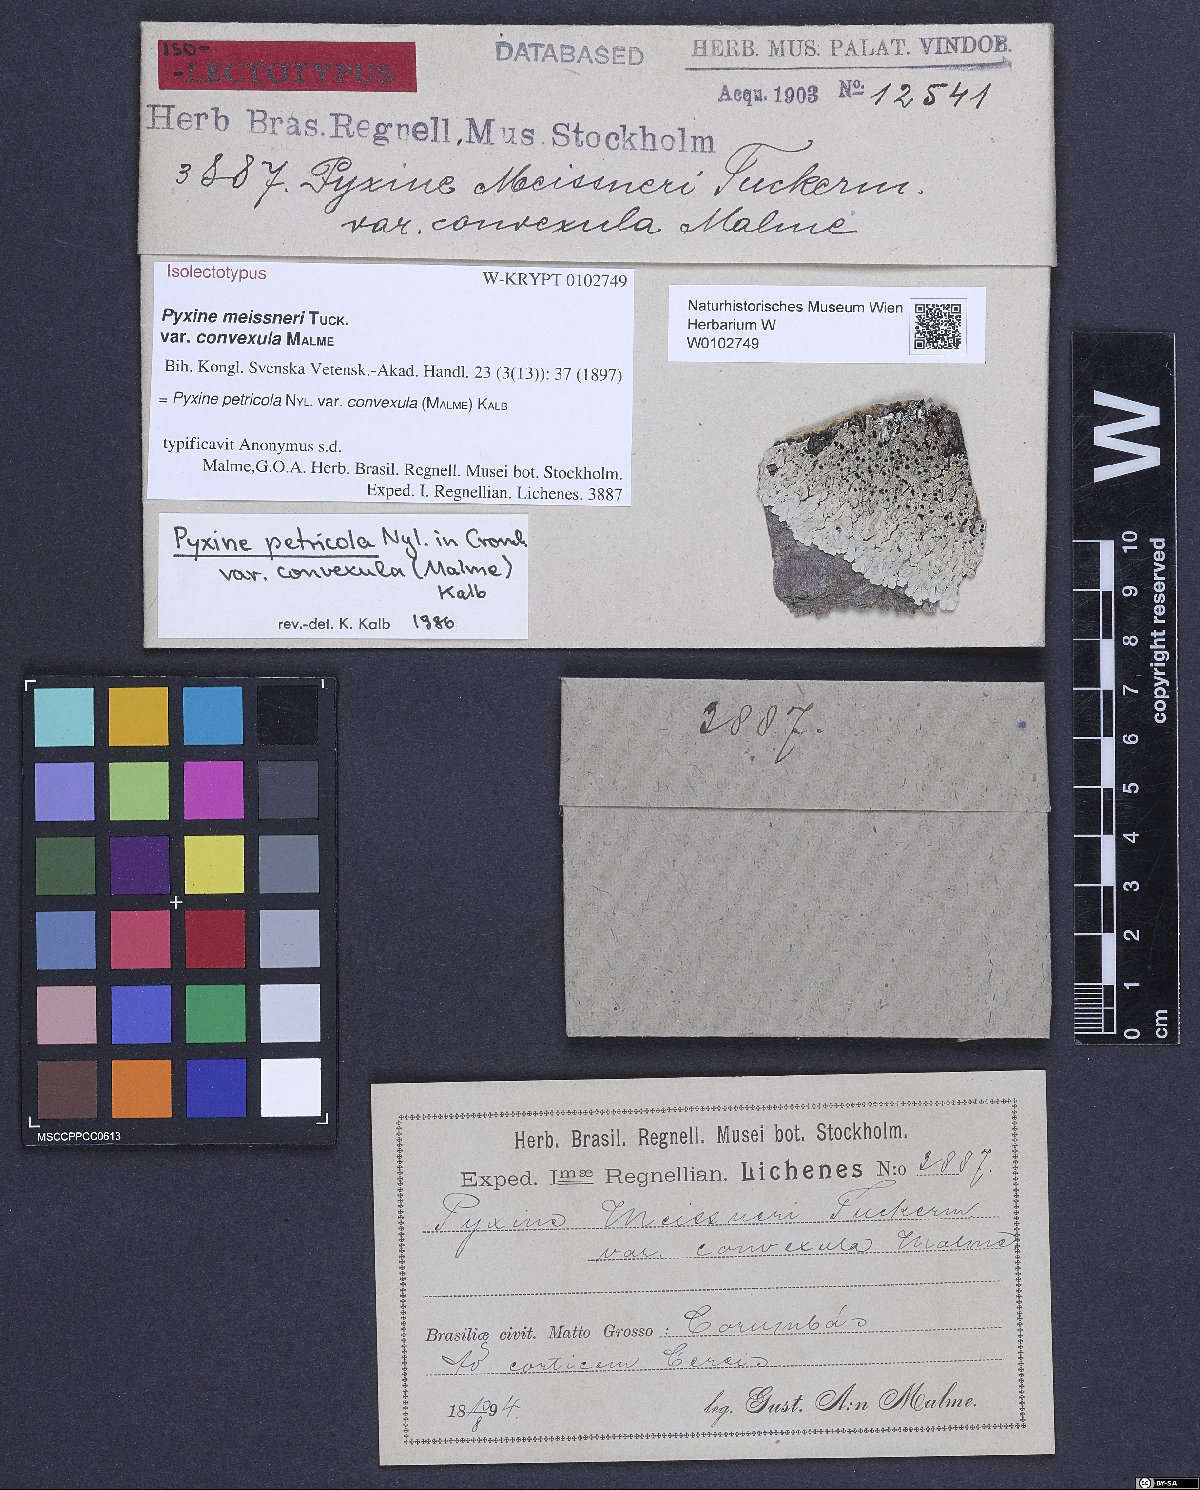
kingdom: Fungi
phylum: Ascomycota
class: Lecanoromycetes
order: Caliciales
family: Caliciaceae
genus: Pyxine
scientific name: Pyxine petricola
